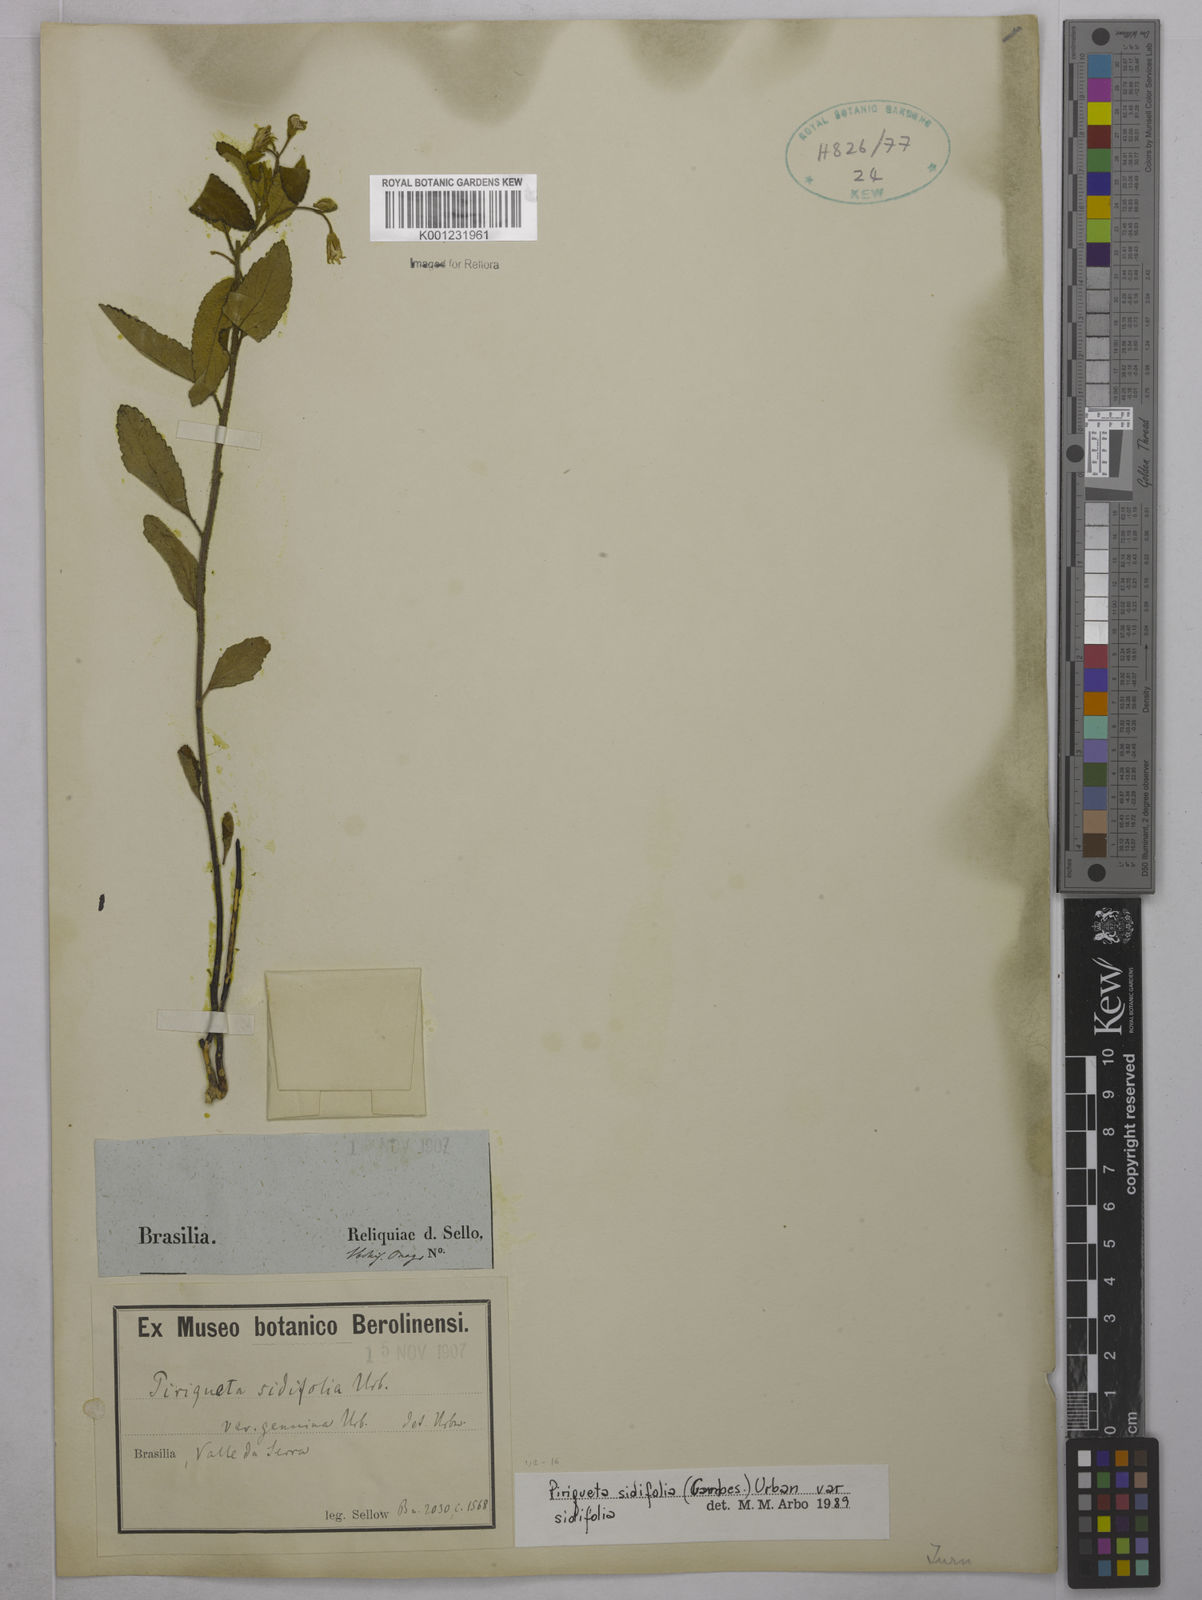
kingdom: Plantae
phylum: Tracheophyta
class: Magnoliopsida
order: Malpighiales
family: Turneraceae
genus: Piriqueta
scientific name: Piriqueta sidifolia
